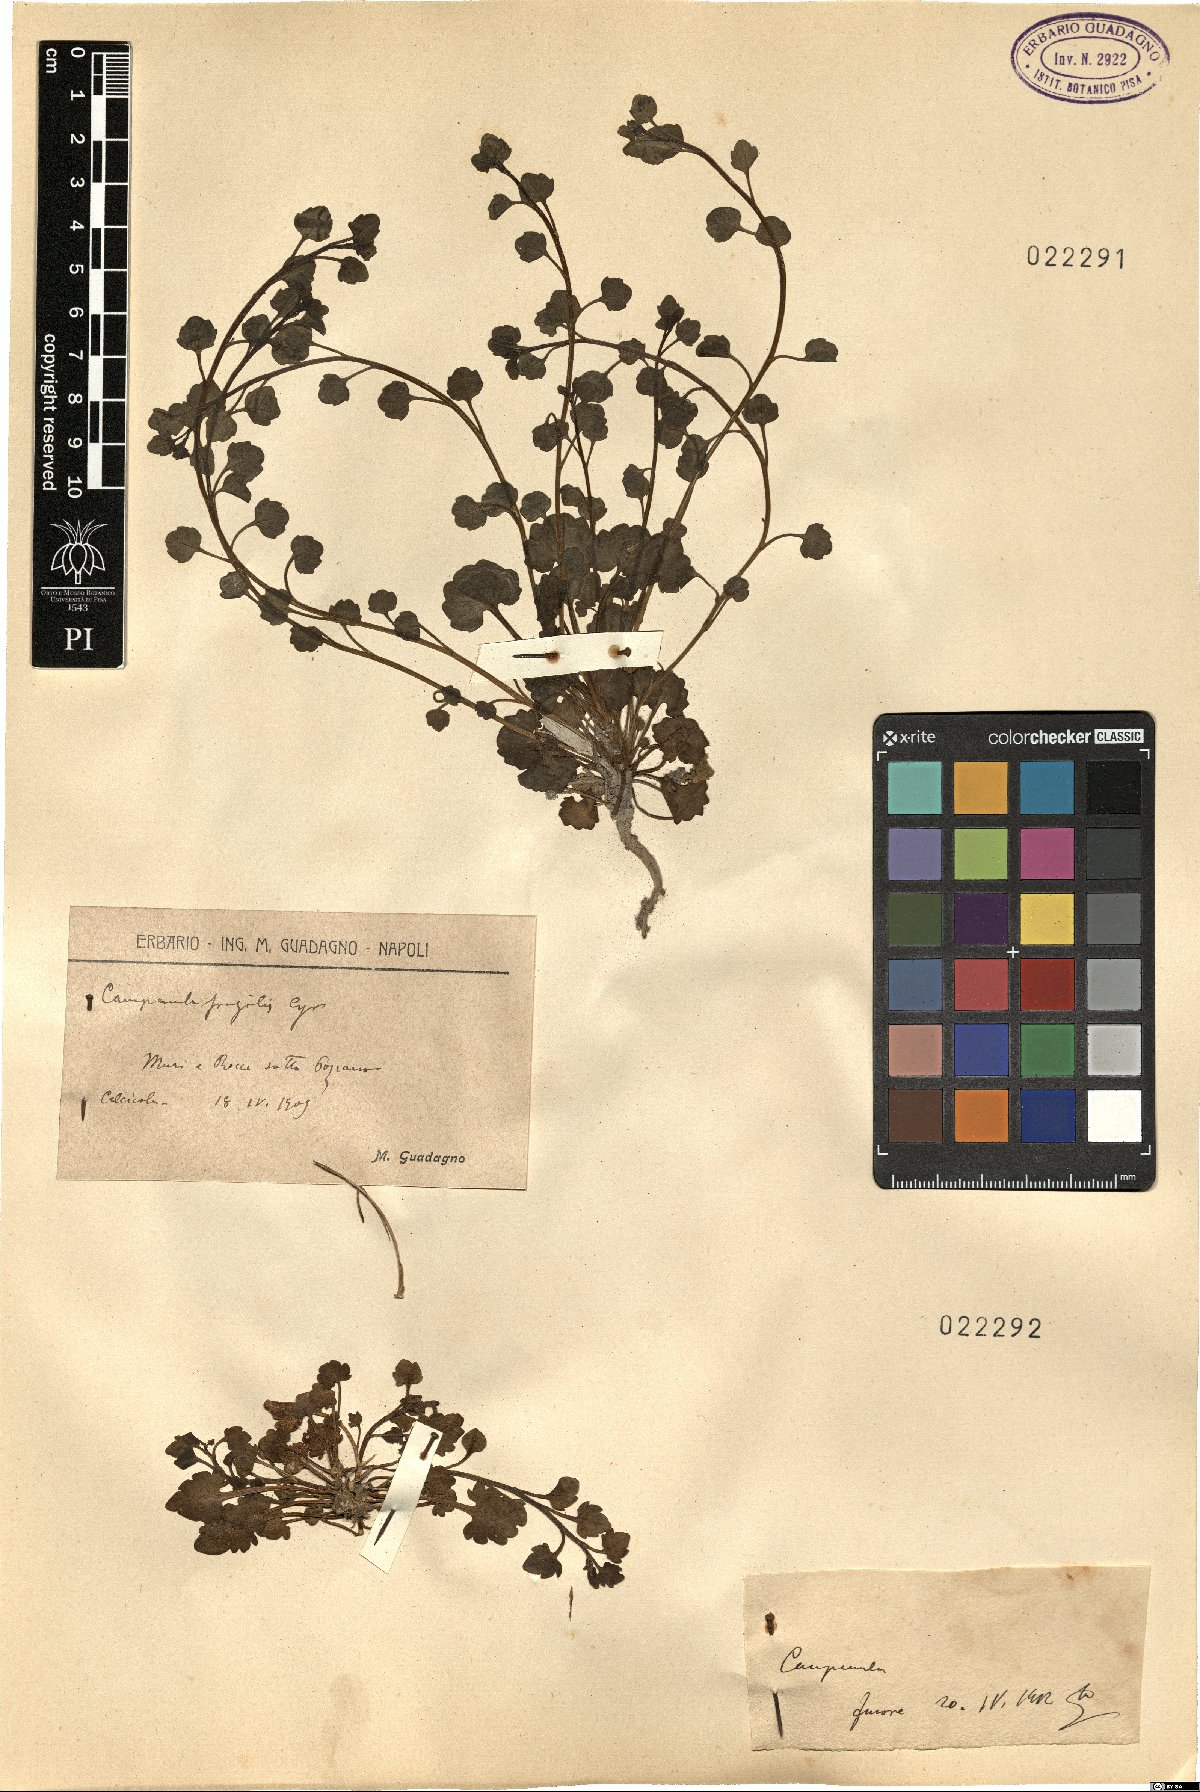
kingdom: Plantae
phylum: Tracheophyta
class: Magnoliopsida
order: Asterales
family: Campanulaceae
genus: Campanula
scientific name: Campanula fragilis
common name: Italian bellflower
